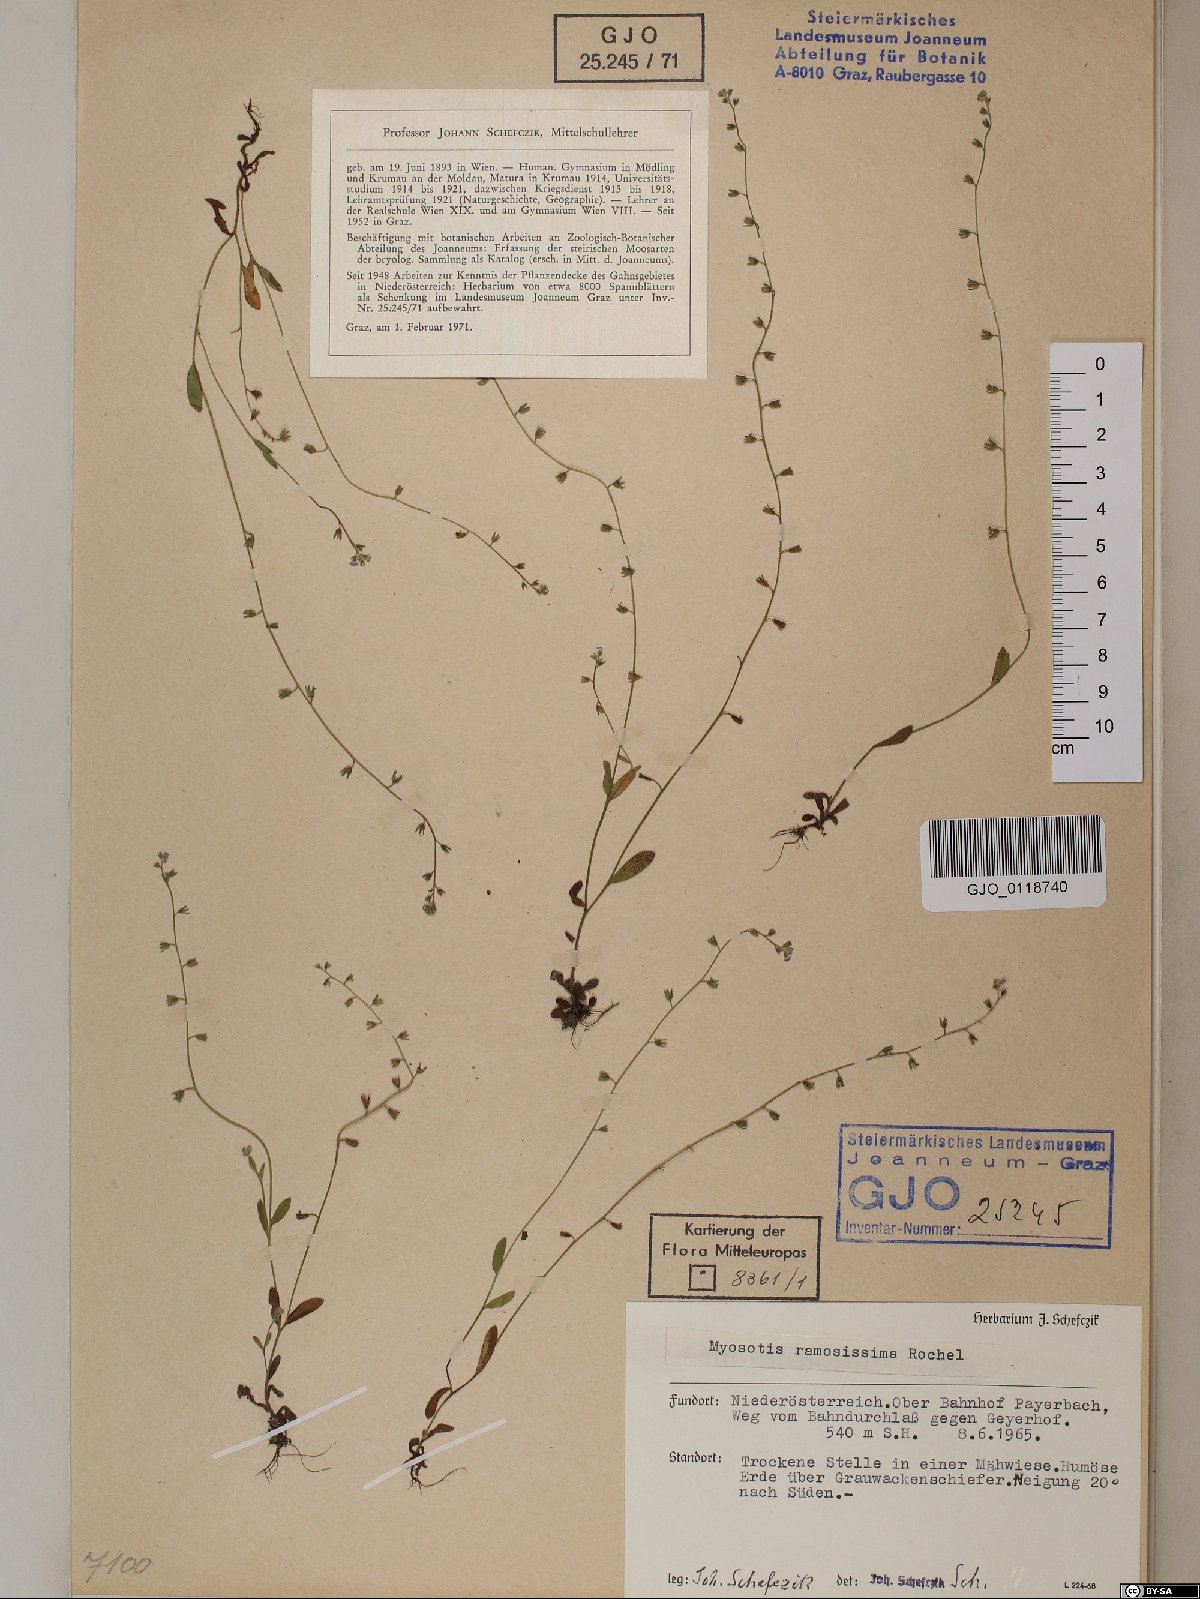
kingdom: Plantae
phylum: Tracheophyta
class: Magnoliopsida
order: Boraginales
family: Boraginaceae
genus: Myosotis
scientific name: Myosotis ramosissima
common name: Early forget-me-not
